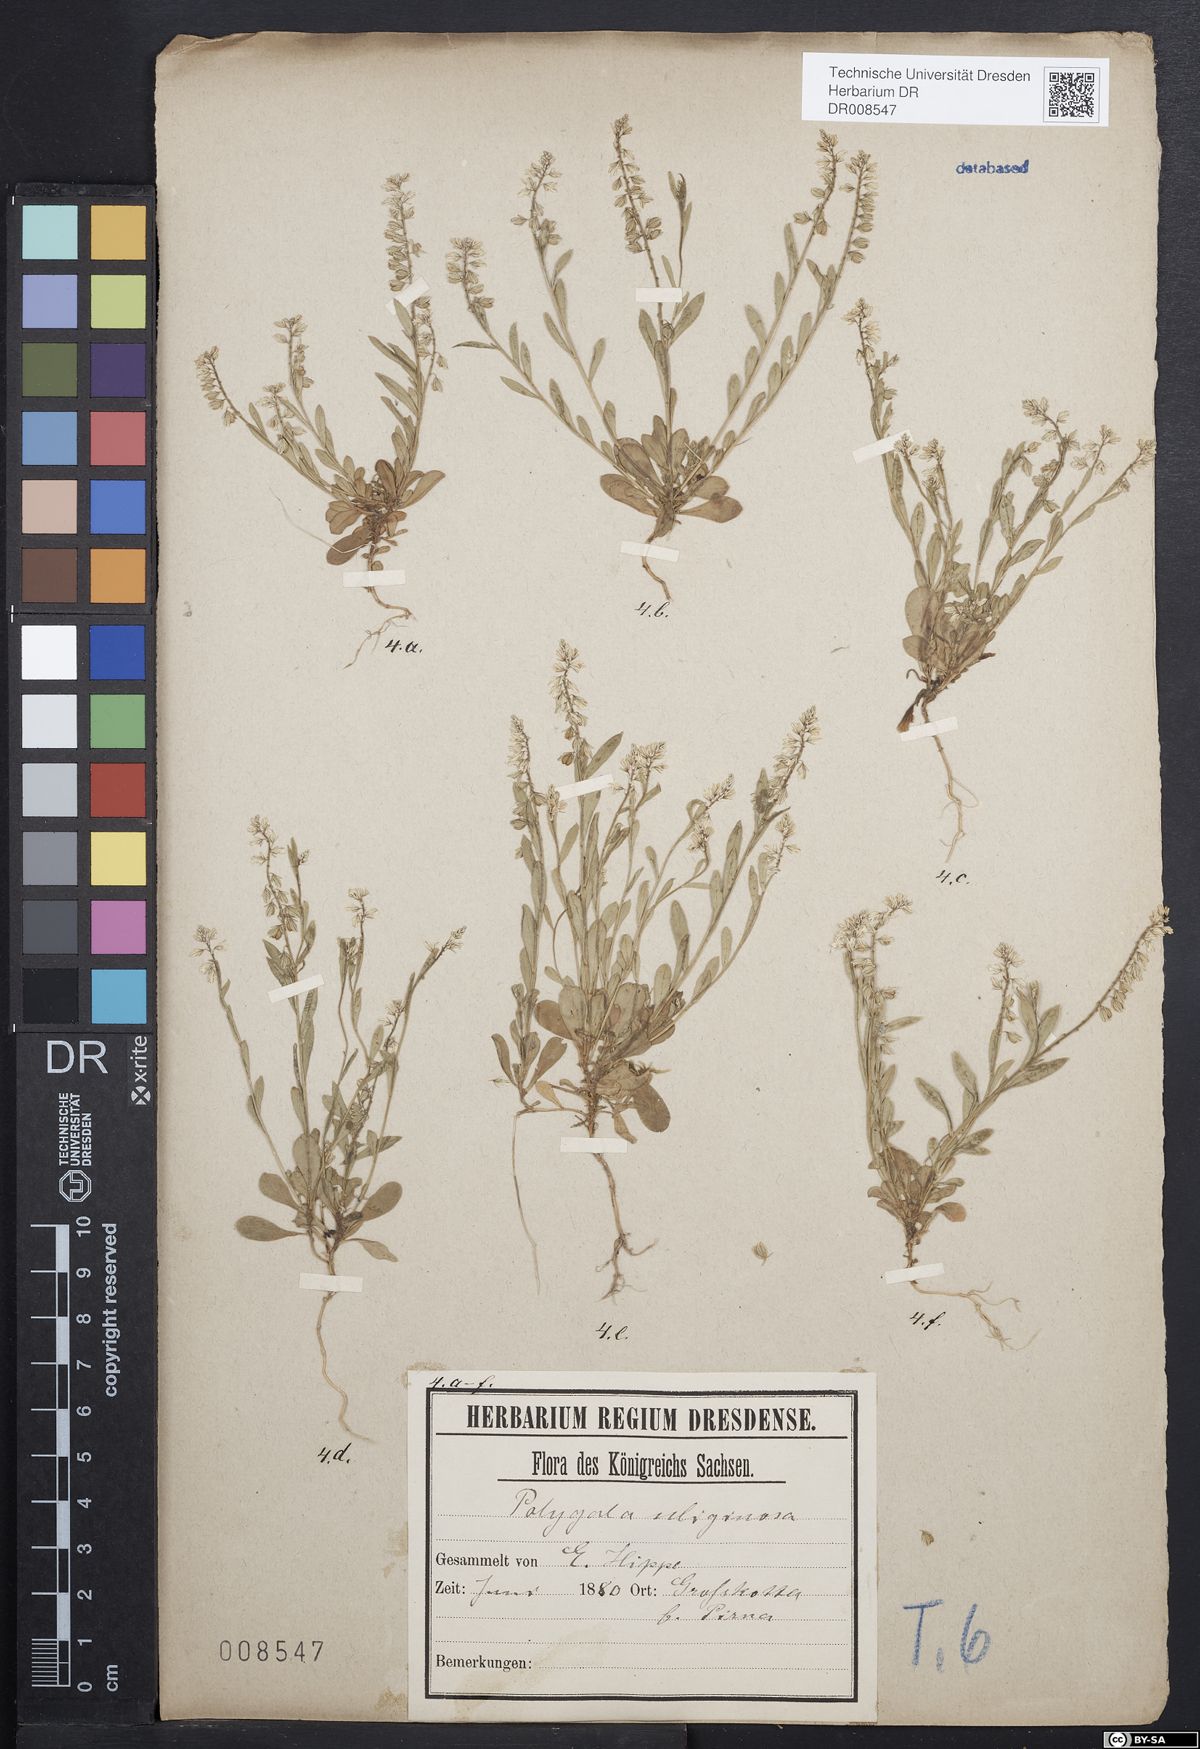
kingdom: Plantae
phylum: Tracheophyta
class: Magnoliopsida
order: Fabales
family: Polygalaceae
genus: Polygala
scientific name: Polygala amarella
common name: Dwarf milkwort
